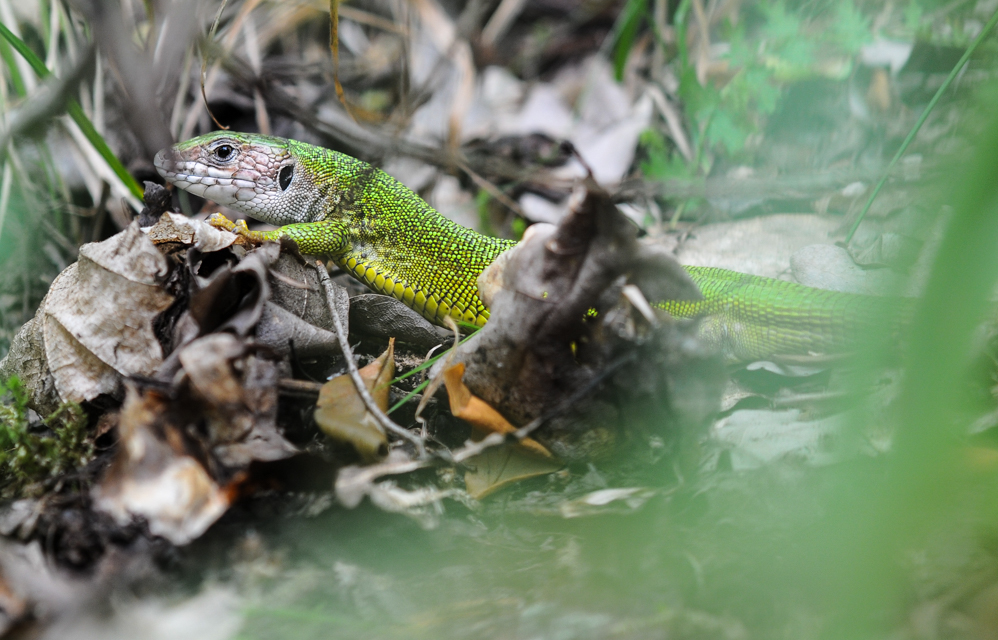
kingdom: Animalia
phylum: Chordata
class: Squamata
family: Lacertidae
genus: Lacerta
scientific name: Lacerta viridis
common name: European green lizard
